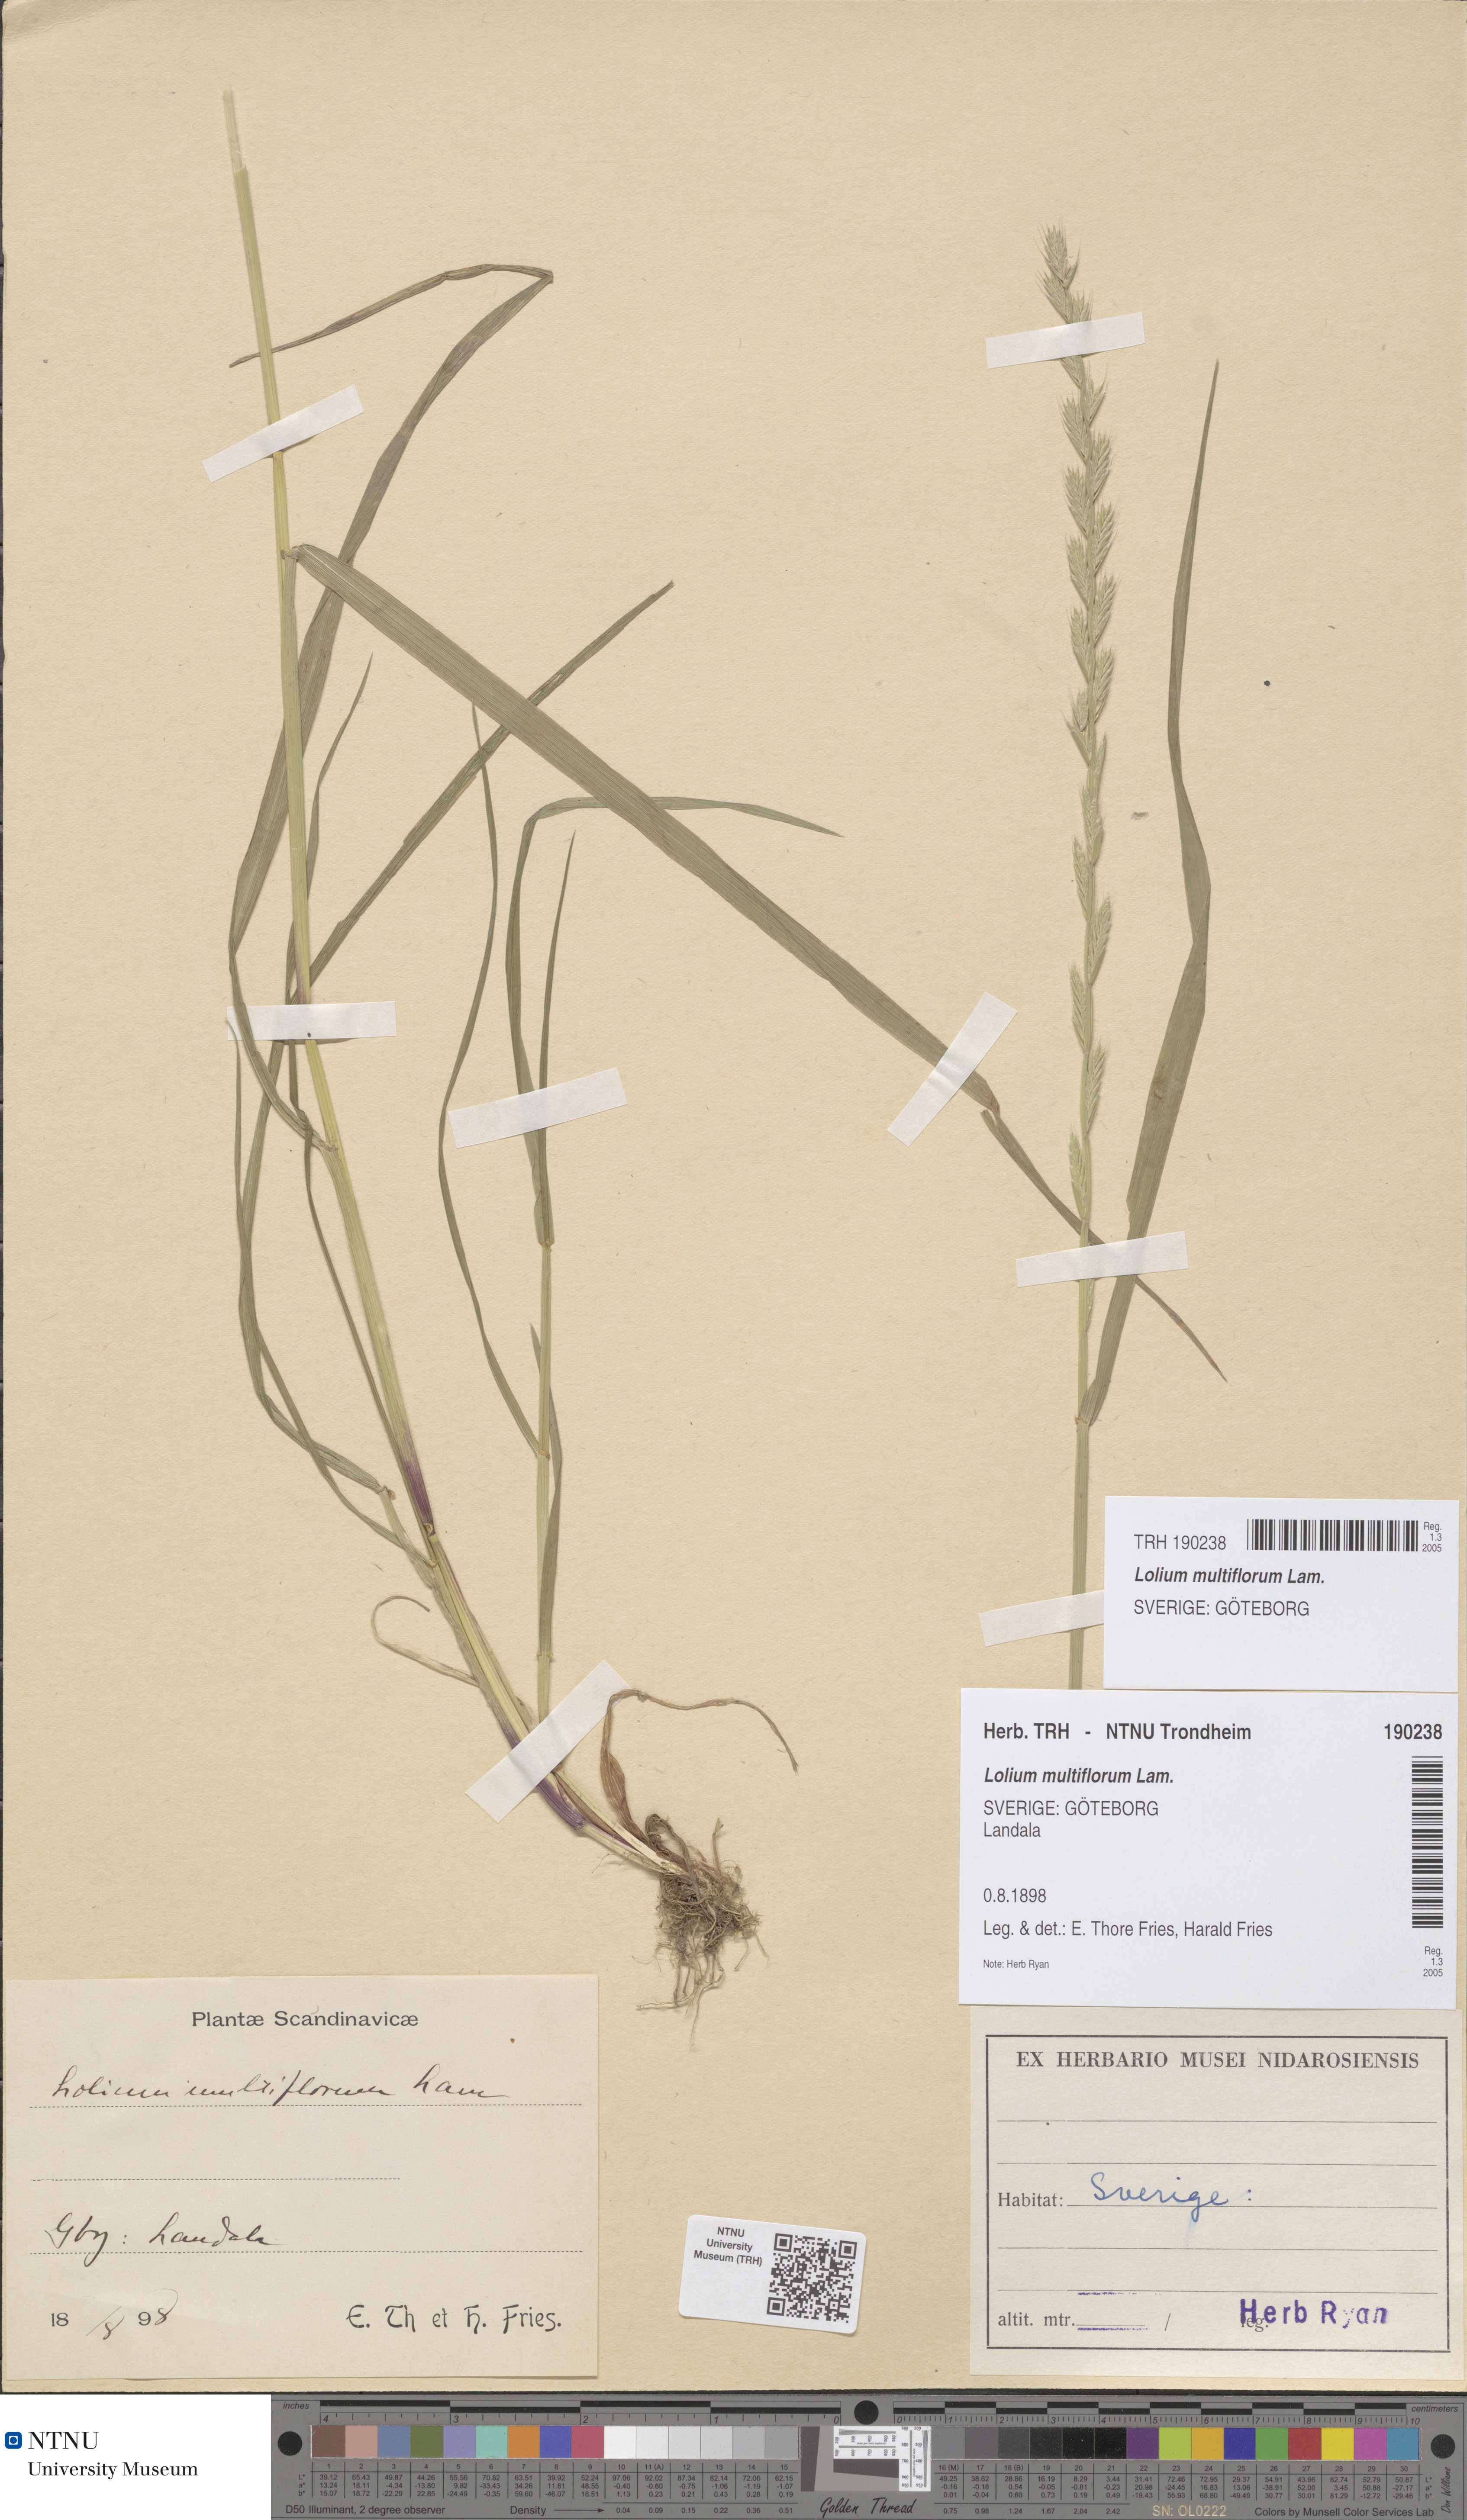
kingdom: Plantae
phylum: Tracheophyta
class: Liliopsida
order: Poales
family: Poaceae
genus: Lolium
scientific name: Lolium multiflorum
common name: Annual ryegrass
